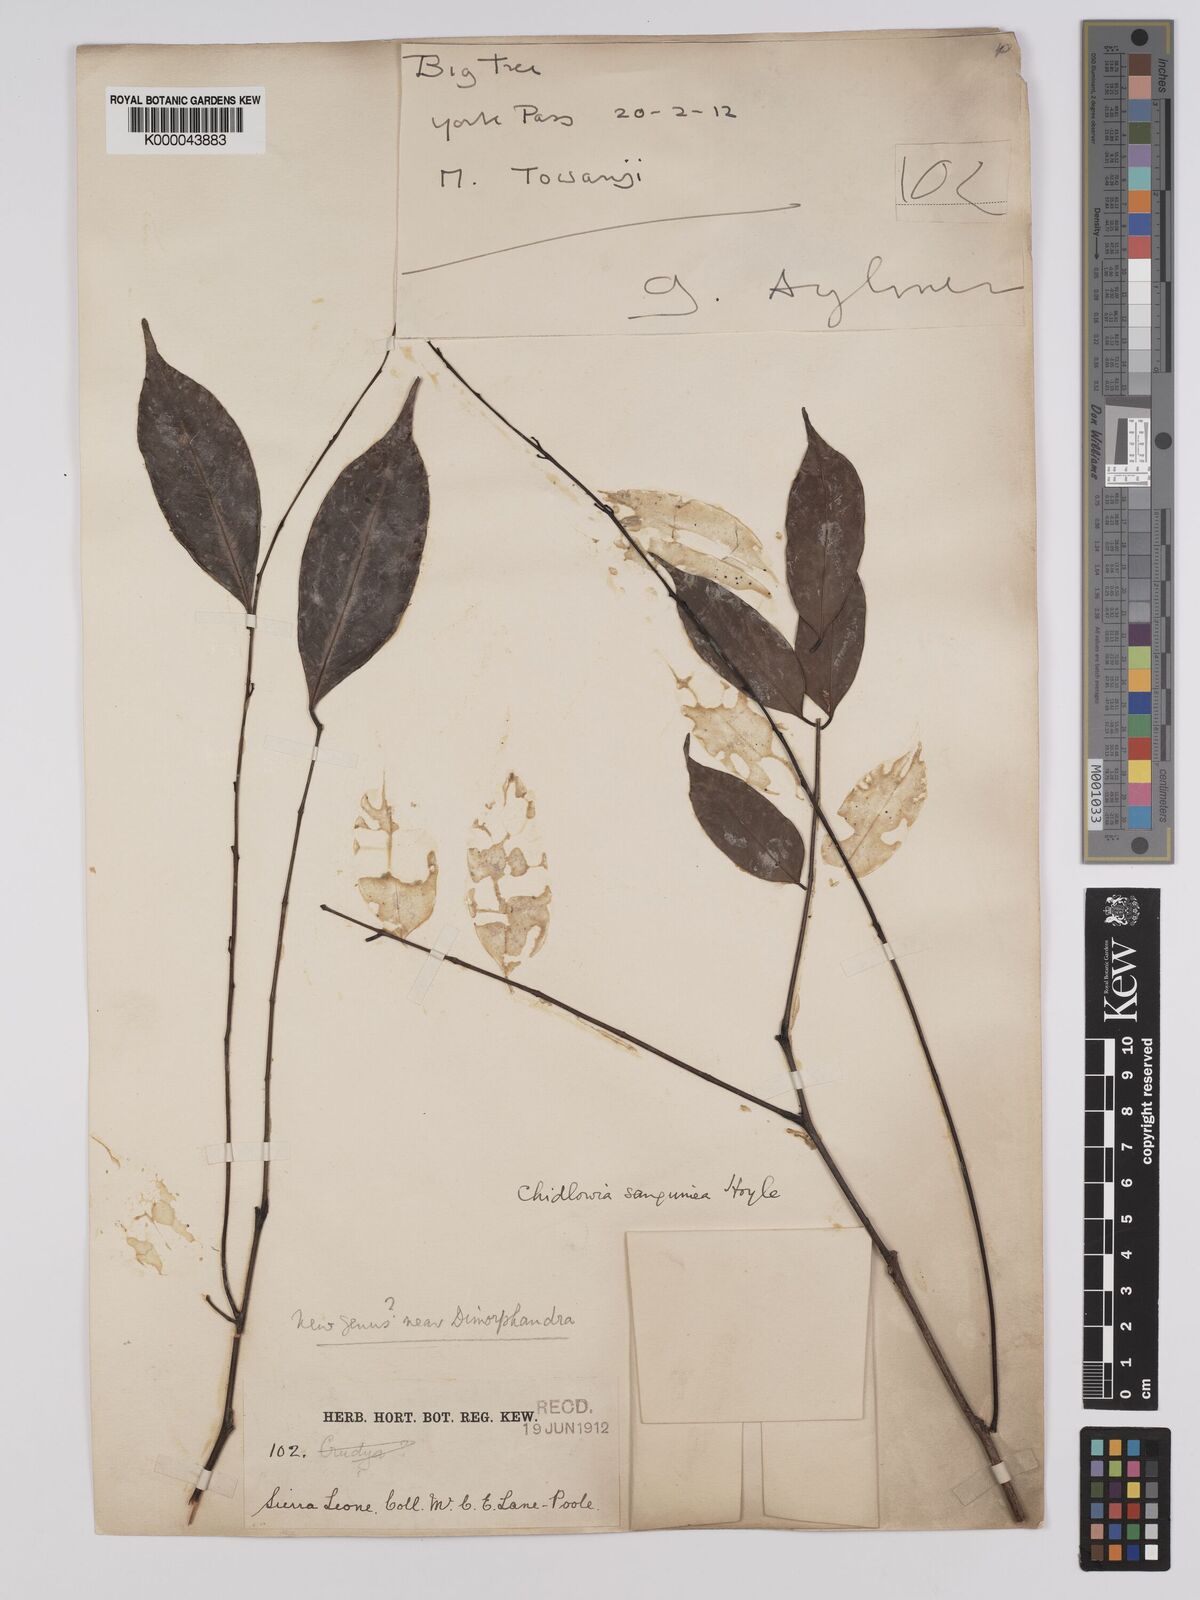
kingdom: Plantae
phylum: Tracheophyta
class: Magnoliopsida
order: Fabales
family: Fabaceae
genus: Chidlowia
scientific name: Chidlowia sanguinea
